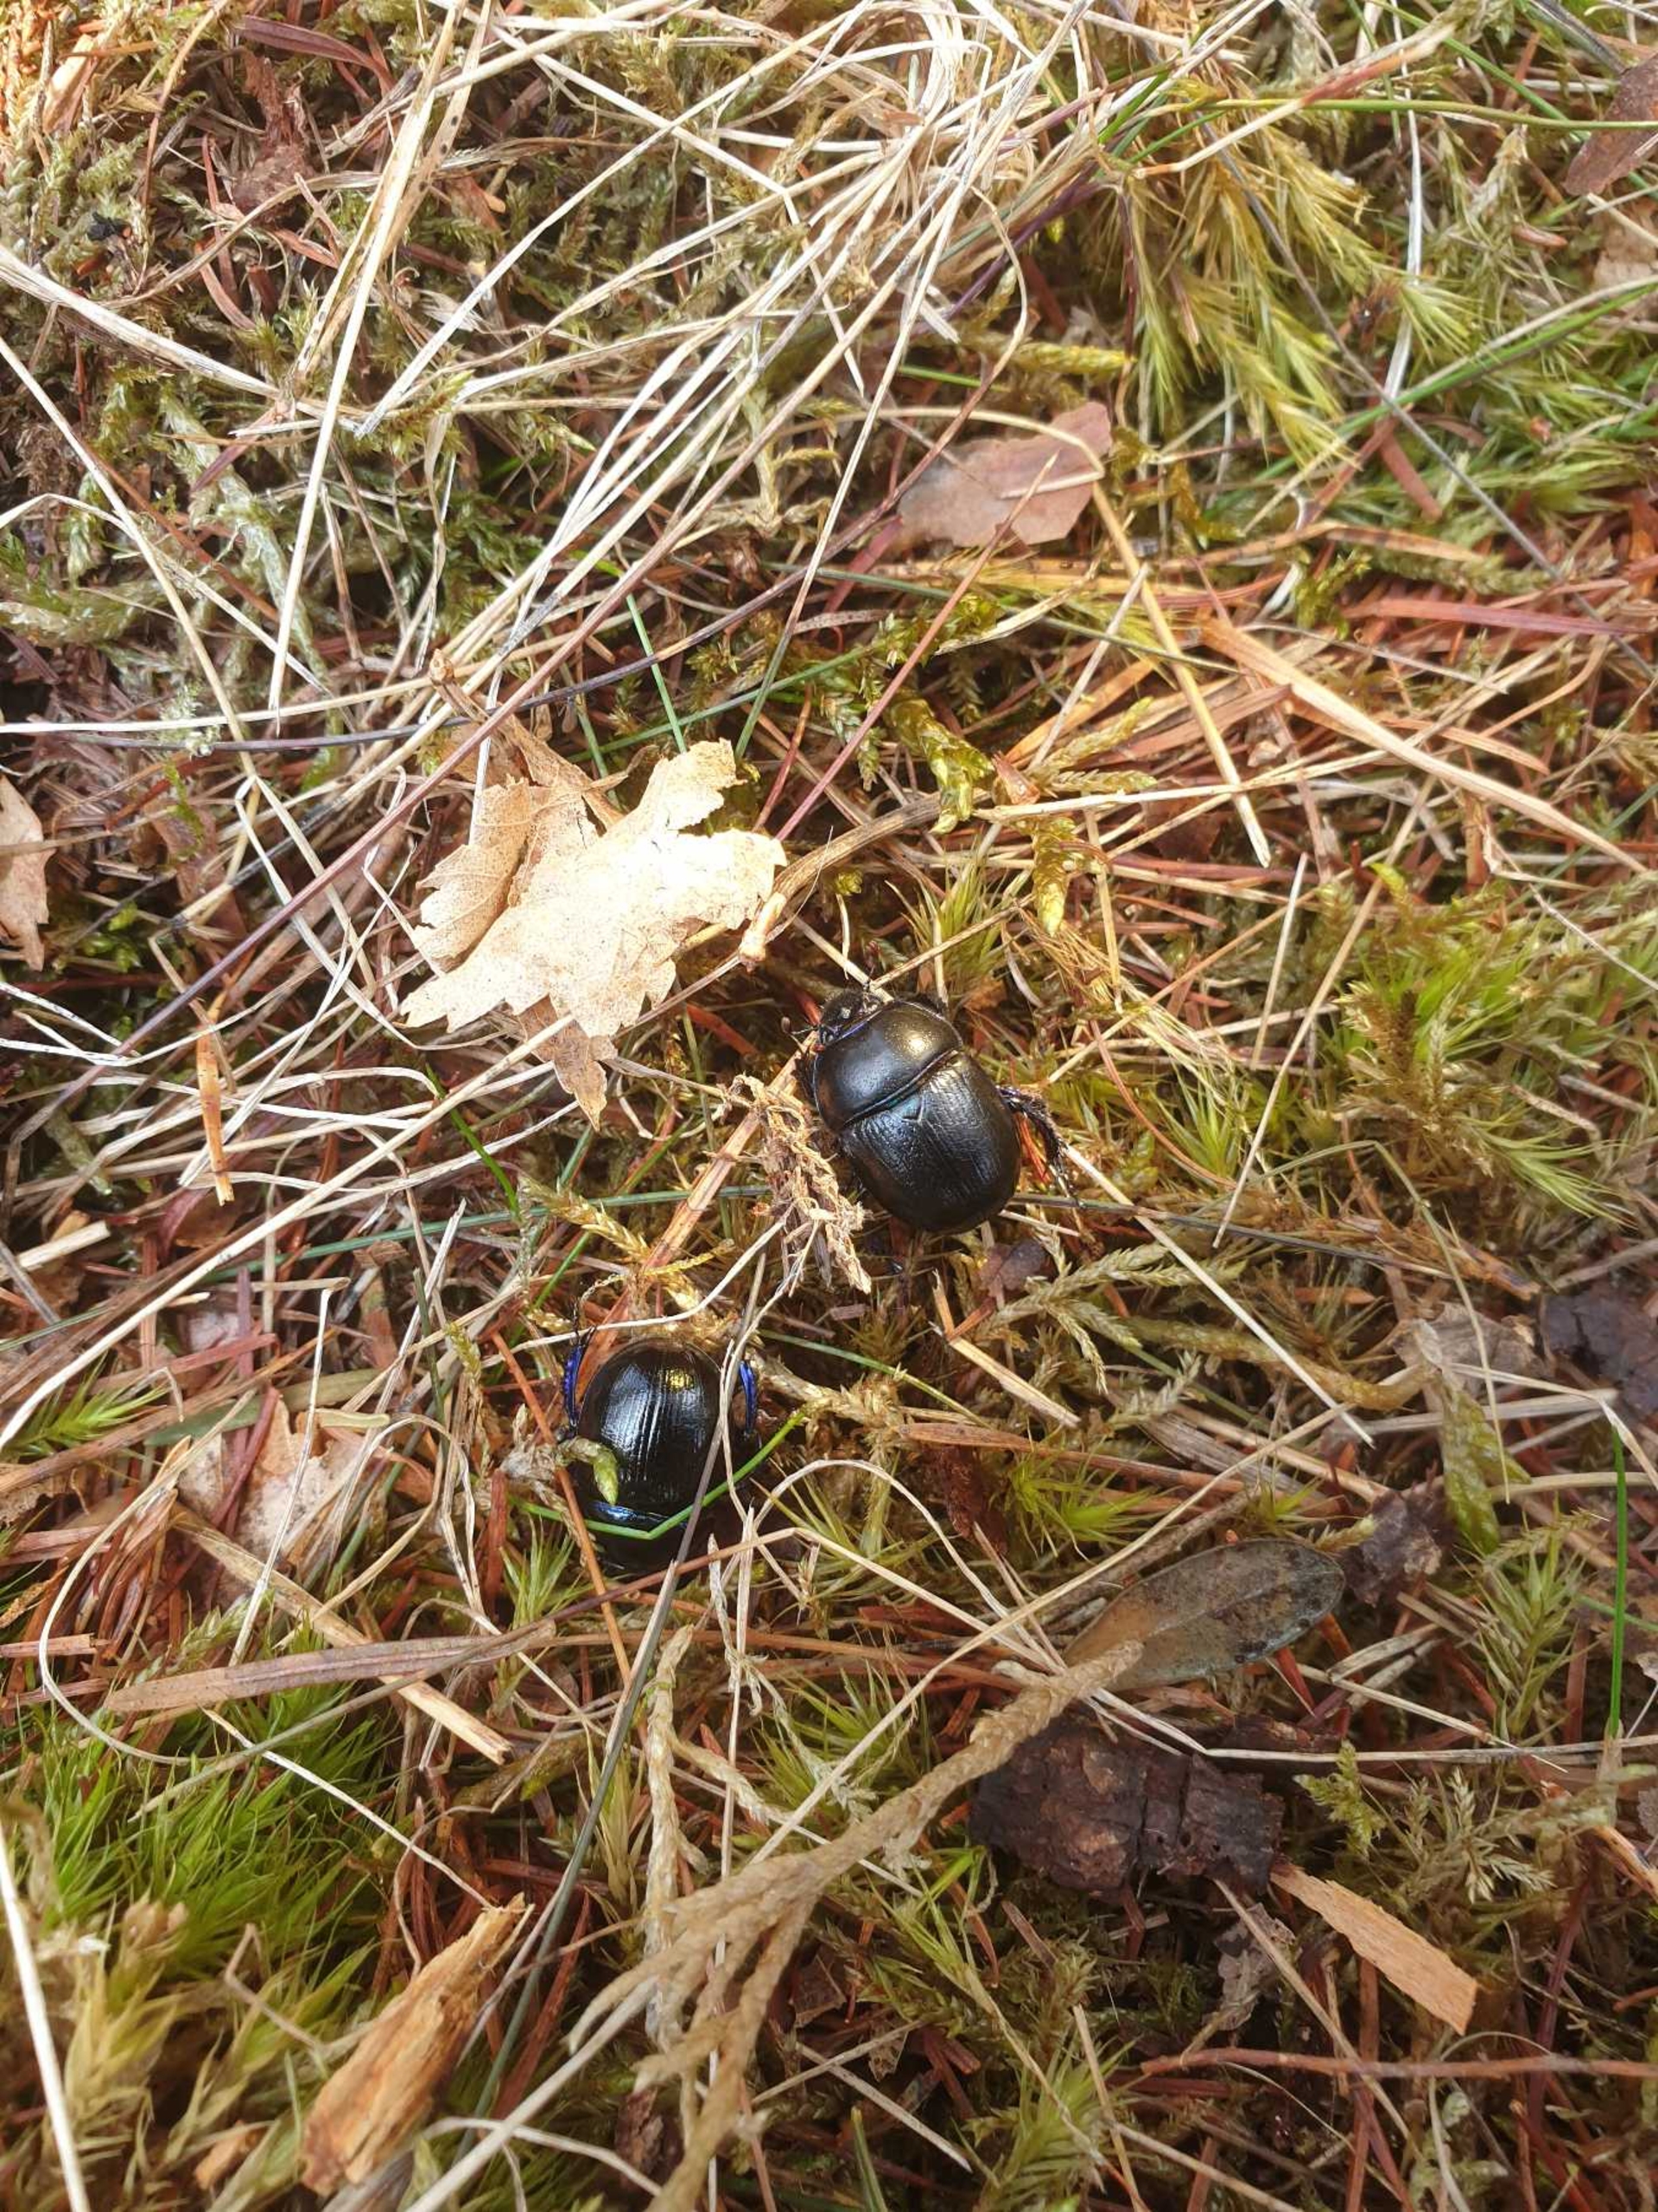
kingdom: Animalia
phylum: Arthropoda
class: Insecta
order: Coleoptera
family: Geotrupidae
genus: Anoplotrupes
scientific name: Anoplotrupes stercorosus
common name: Skovskarnbasse
